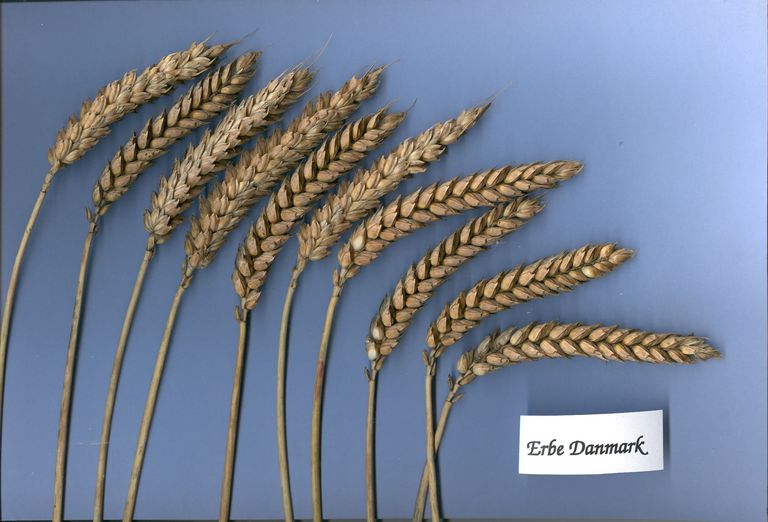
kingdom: Plantae
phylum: Tracheophyta
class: Liliopsida
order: Poales
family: Poaceae
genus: Triticum
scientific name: Triticum aestivum
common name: Common wheat
